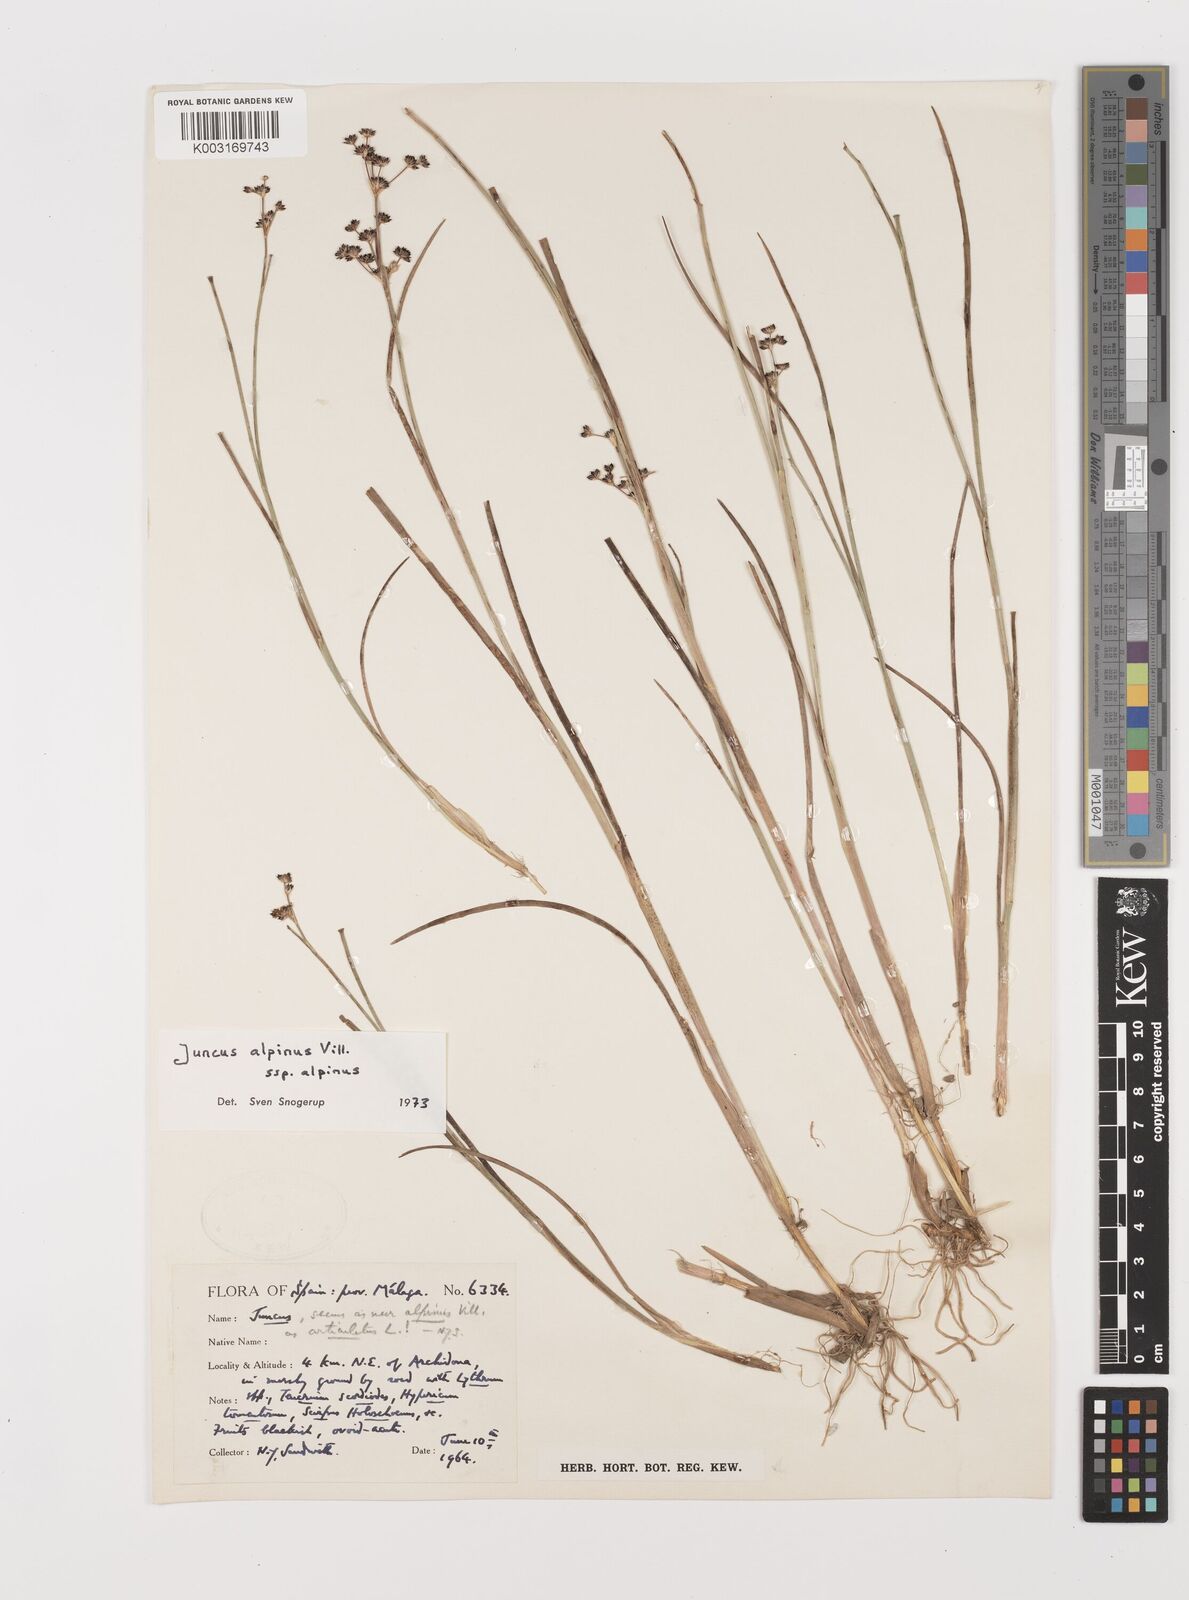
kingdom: Plantae
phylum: Tracheophyta
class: Liliopsida
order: Poales
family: Juncaceae
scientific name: Juncaceae
